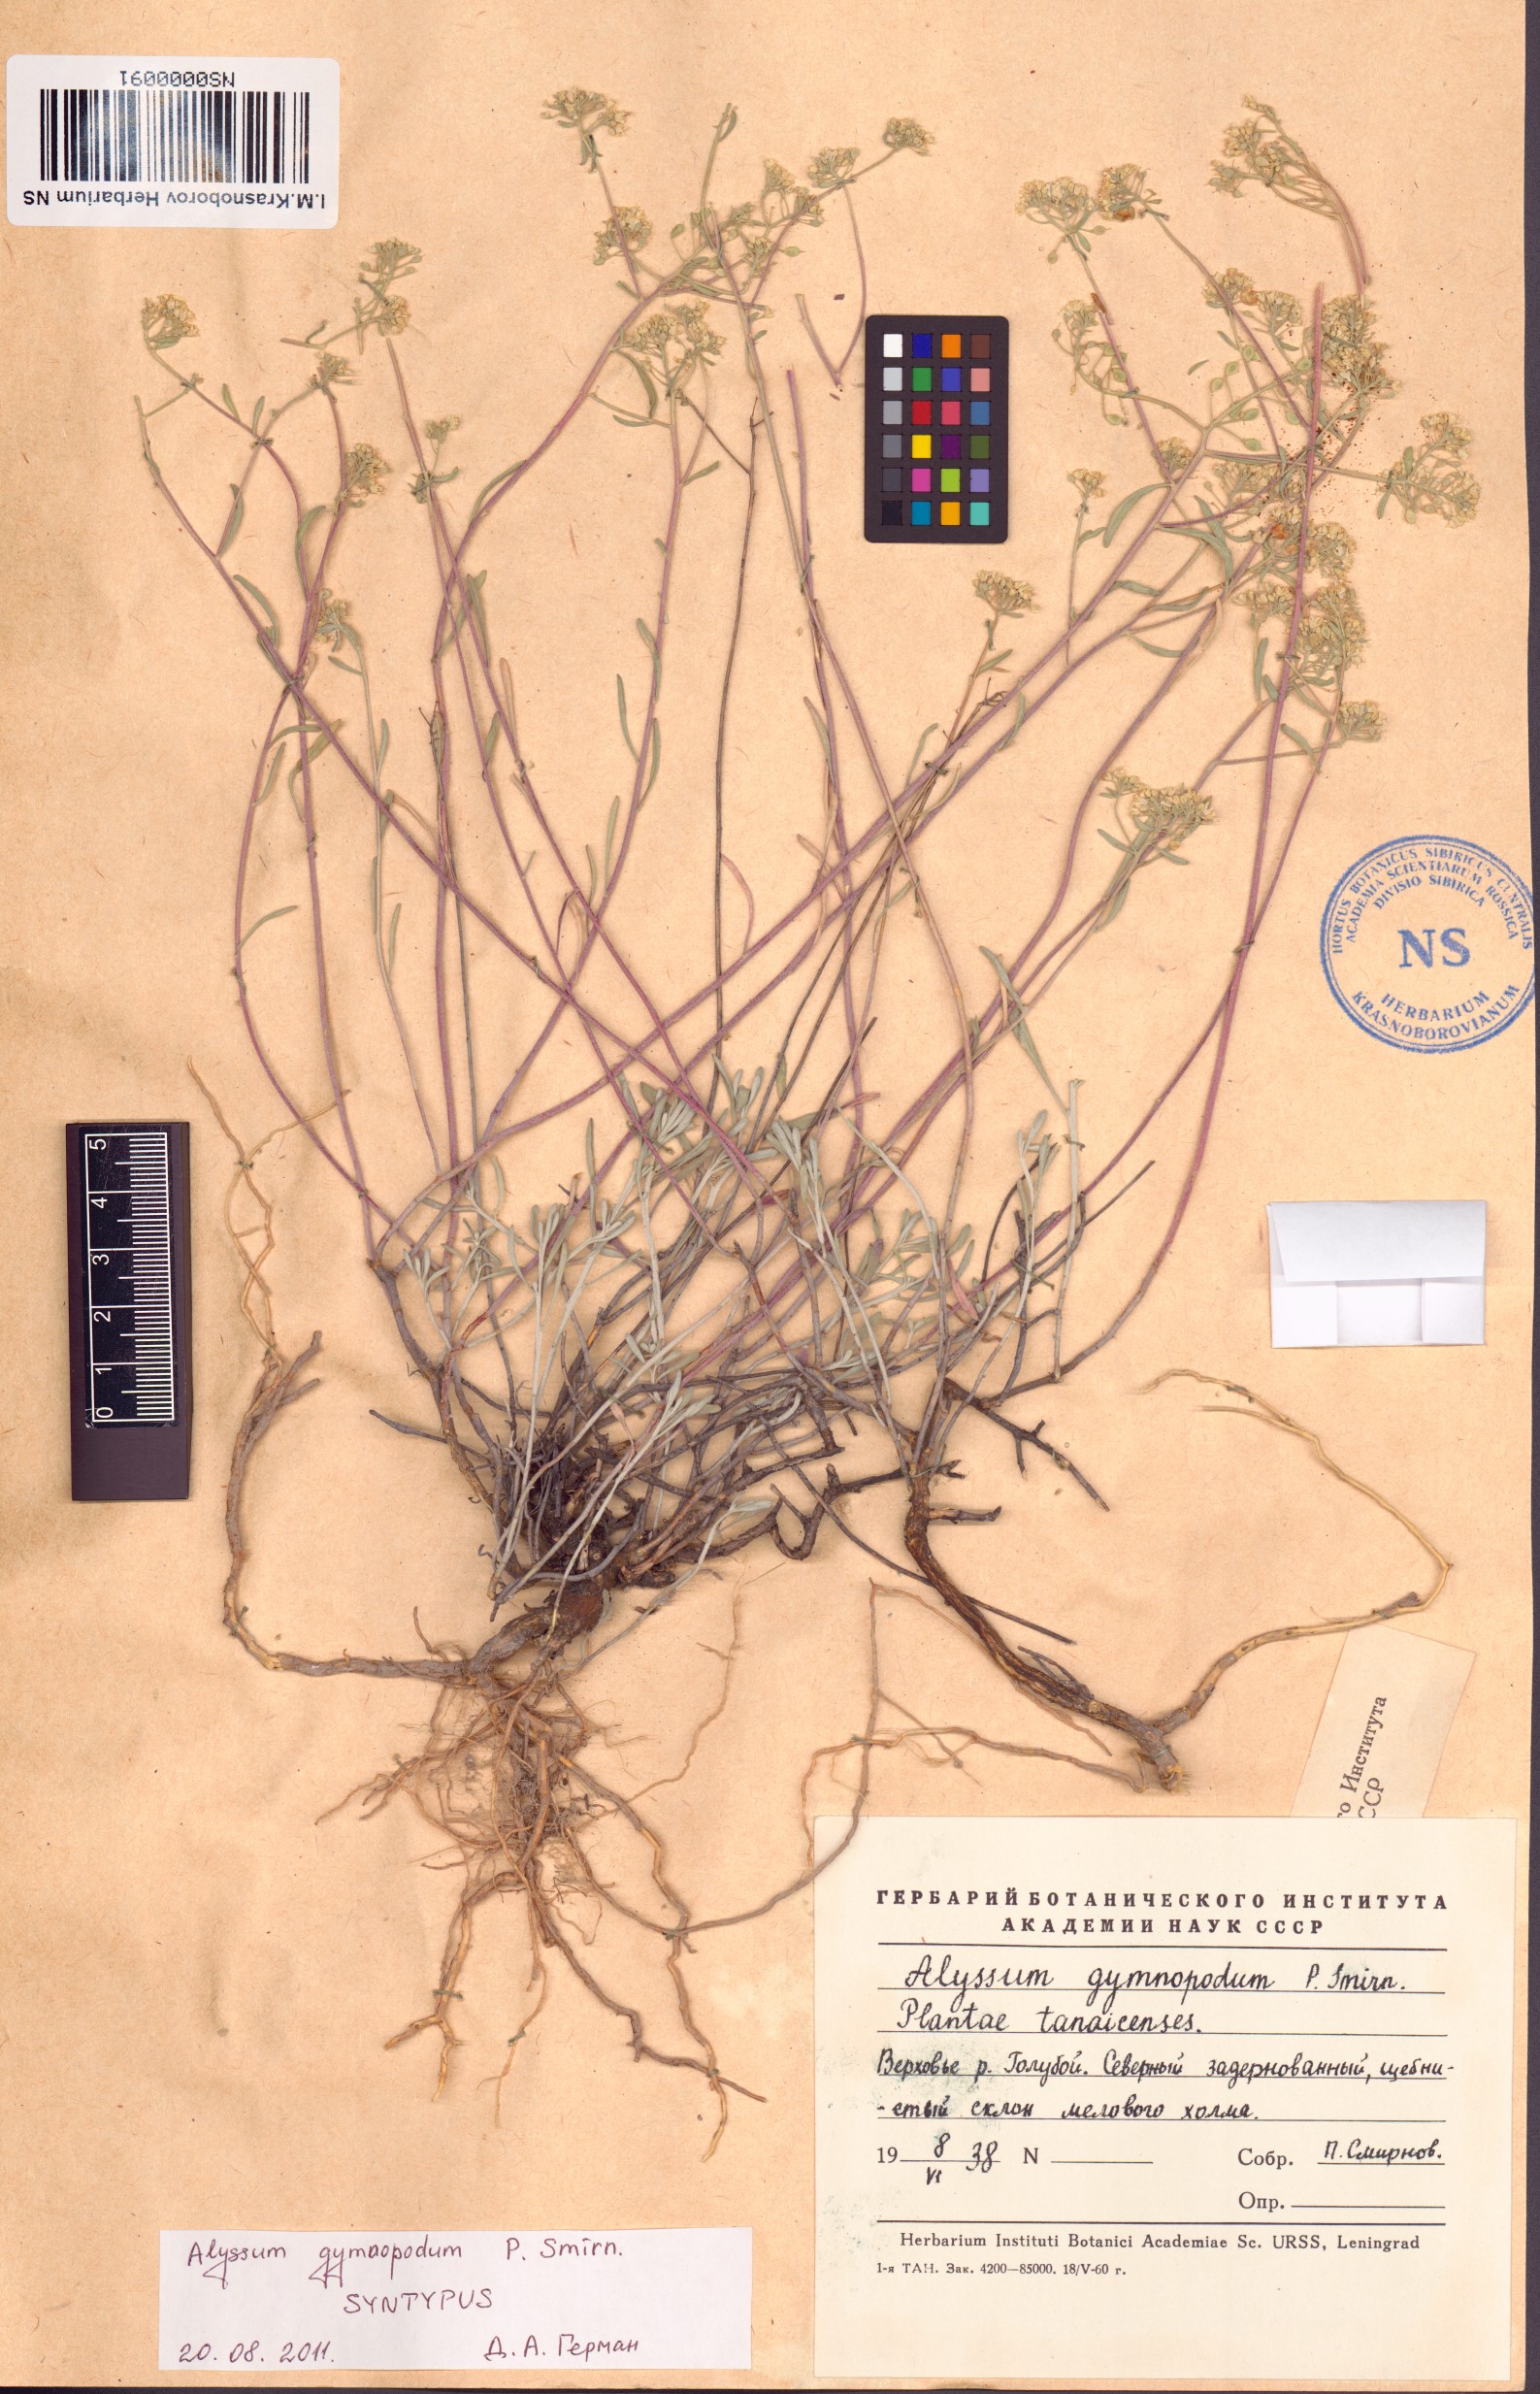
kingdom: Plantae
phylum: Tracheophyta
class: Magnoliopsida
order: Brassicales
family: Brassicaceae
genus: Odontarrhena
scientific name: Odontarrhena tortuosa
